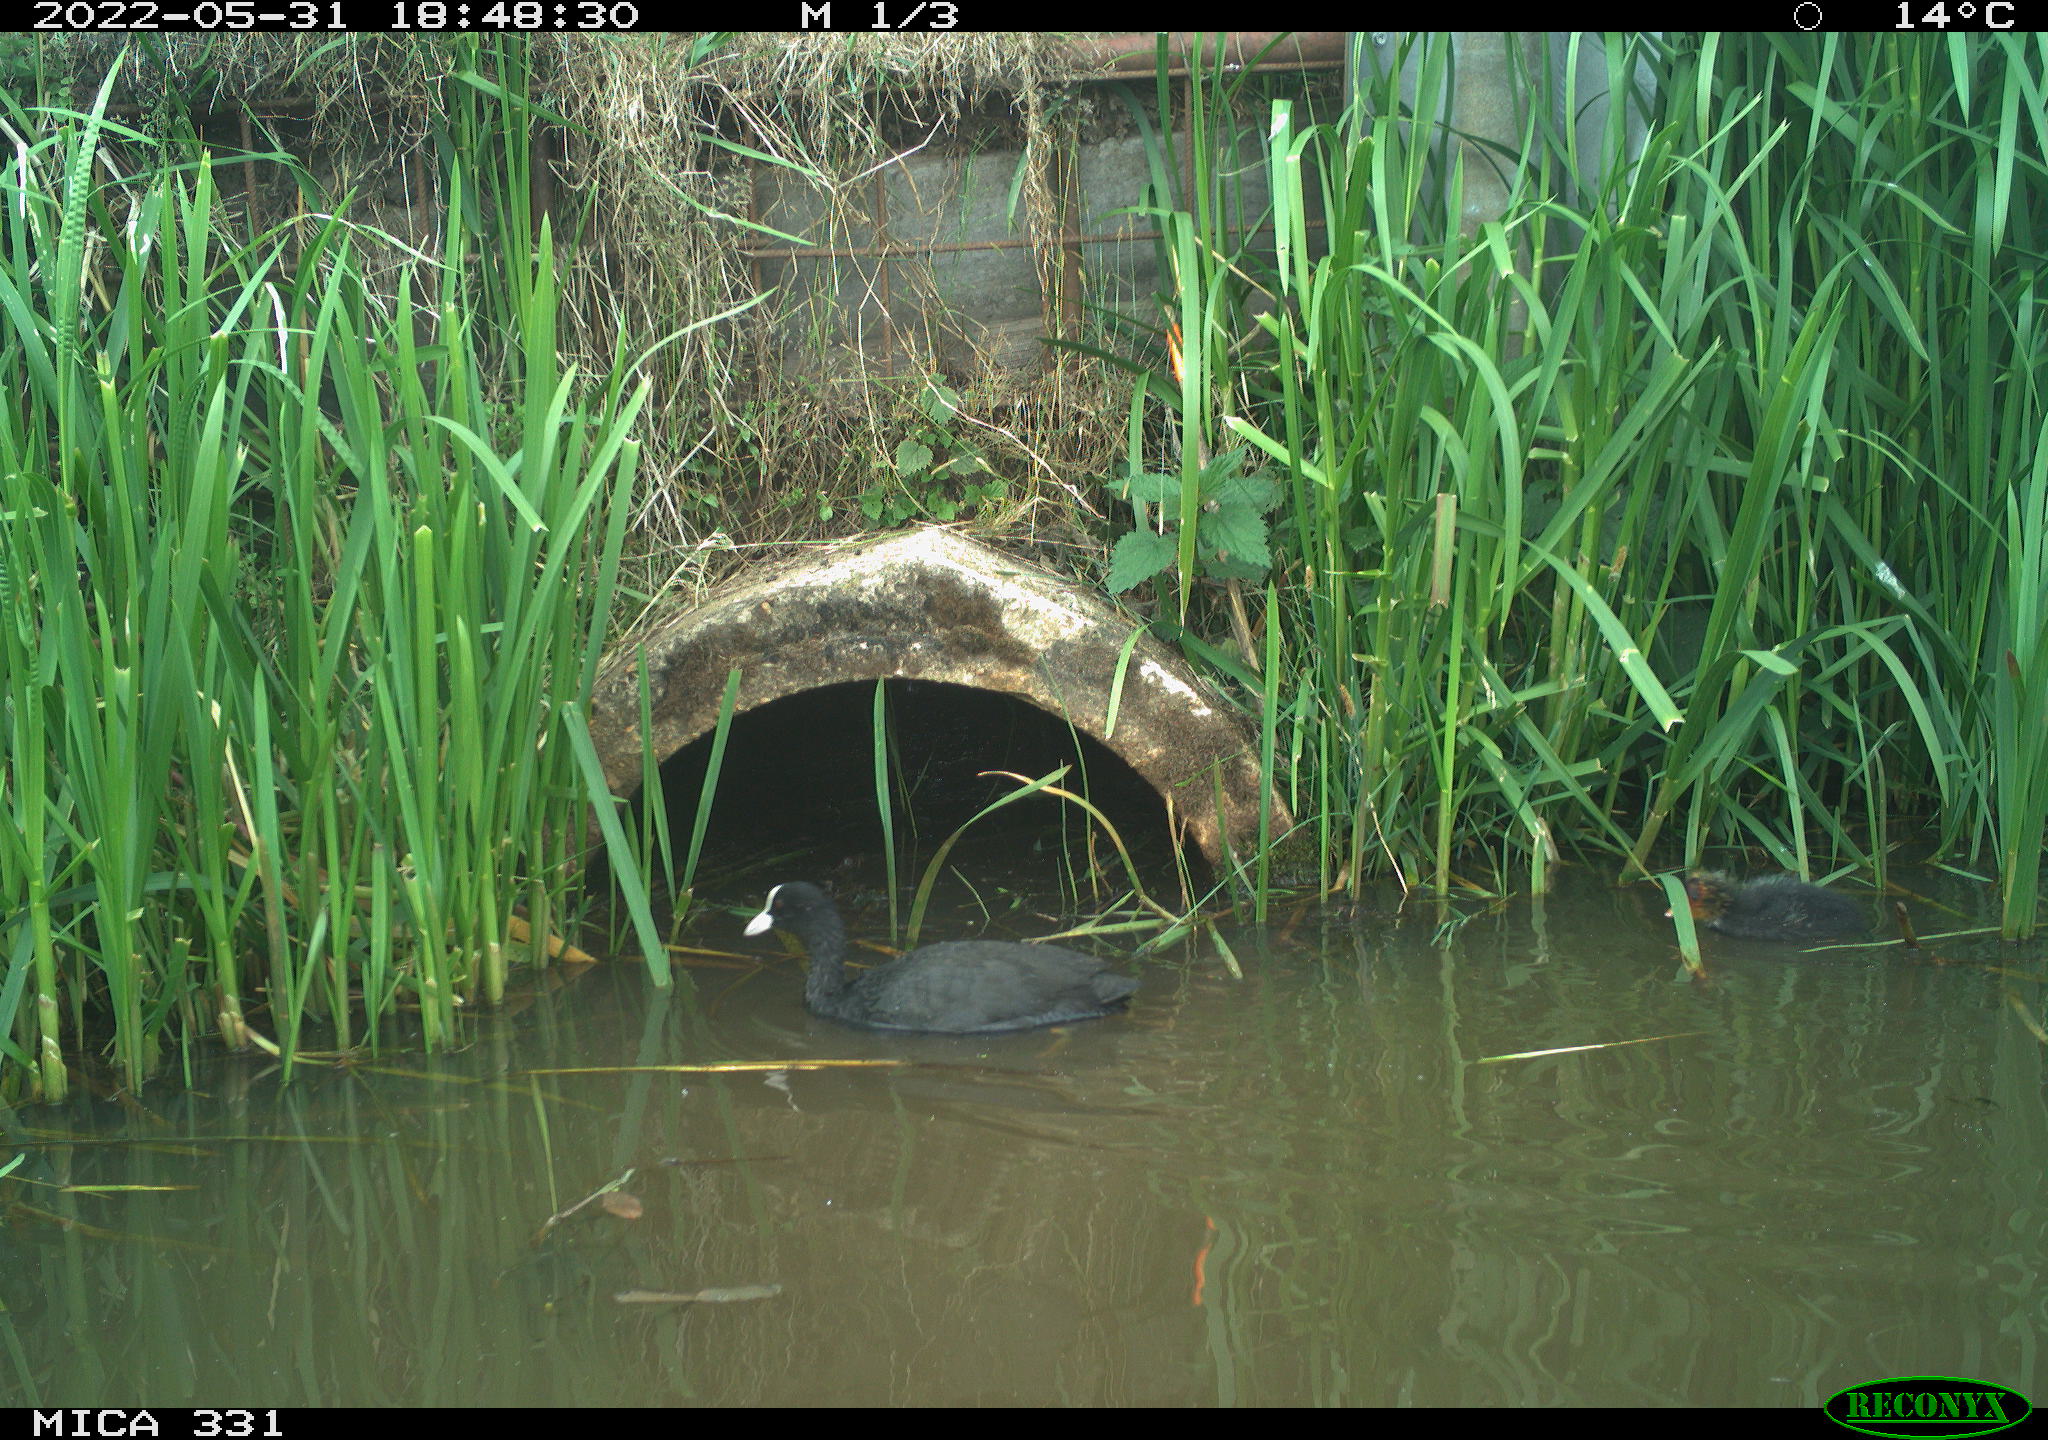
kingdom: Animalia
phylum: Chordata
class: Aves
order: Gruiformes
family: Rallidae
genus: Fulica
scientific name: Fulica atra
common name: Eurasian coot
